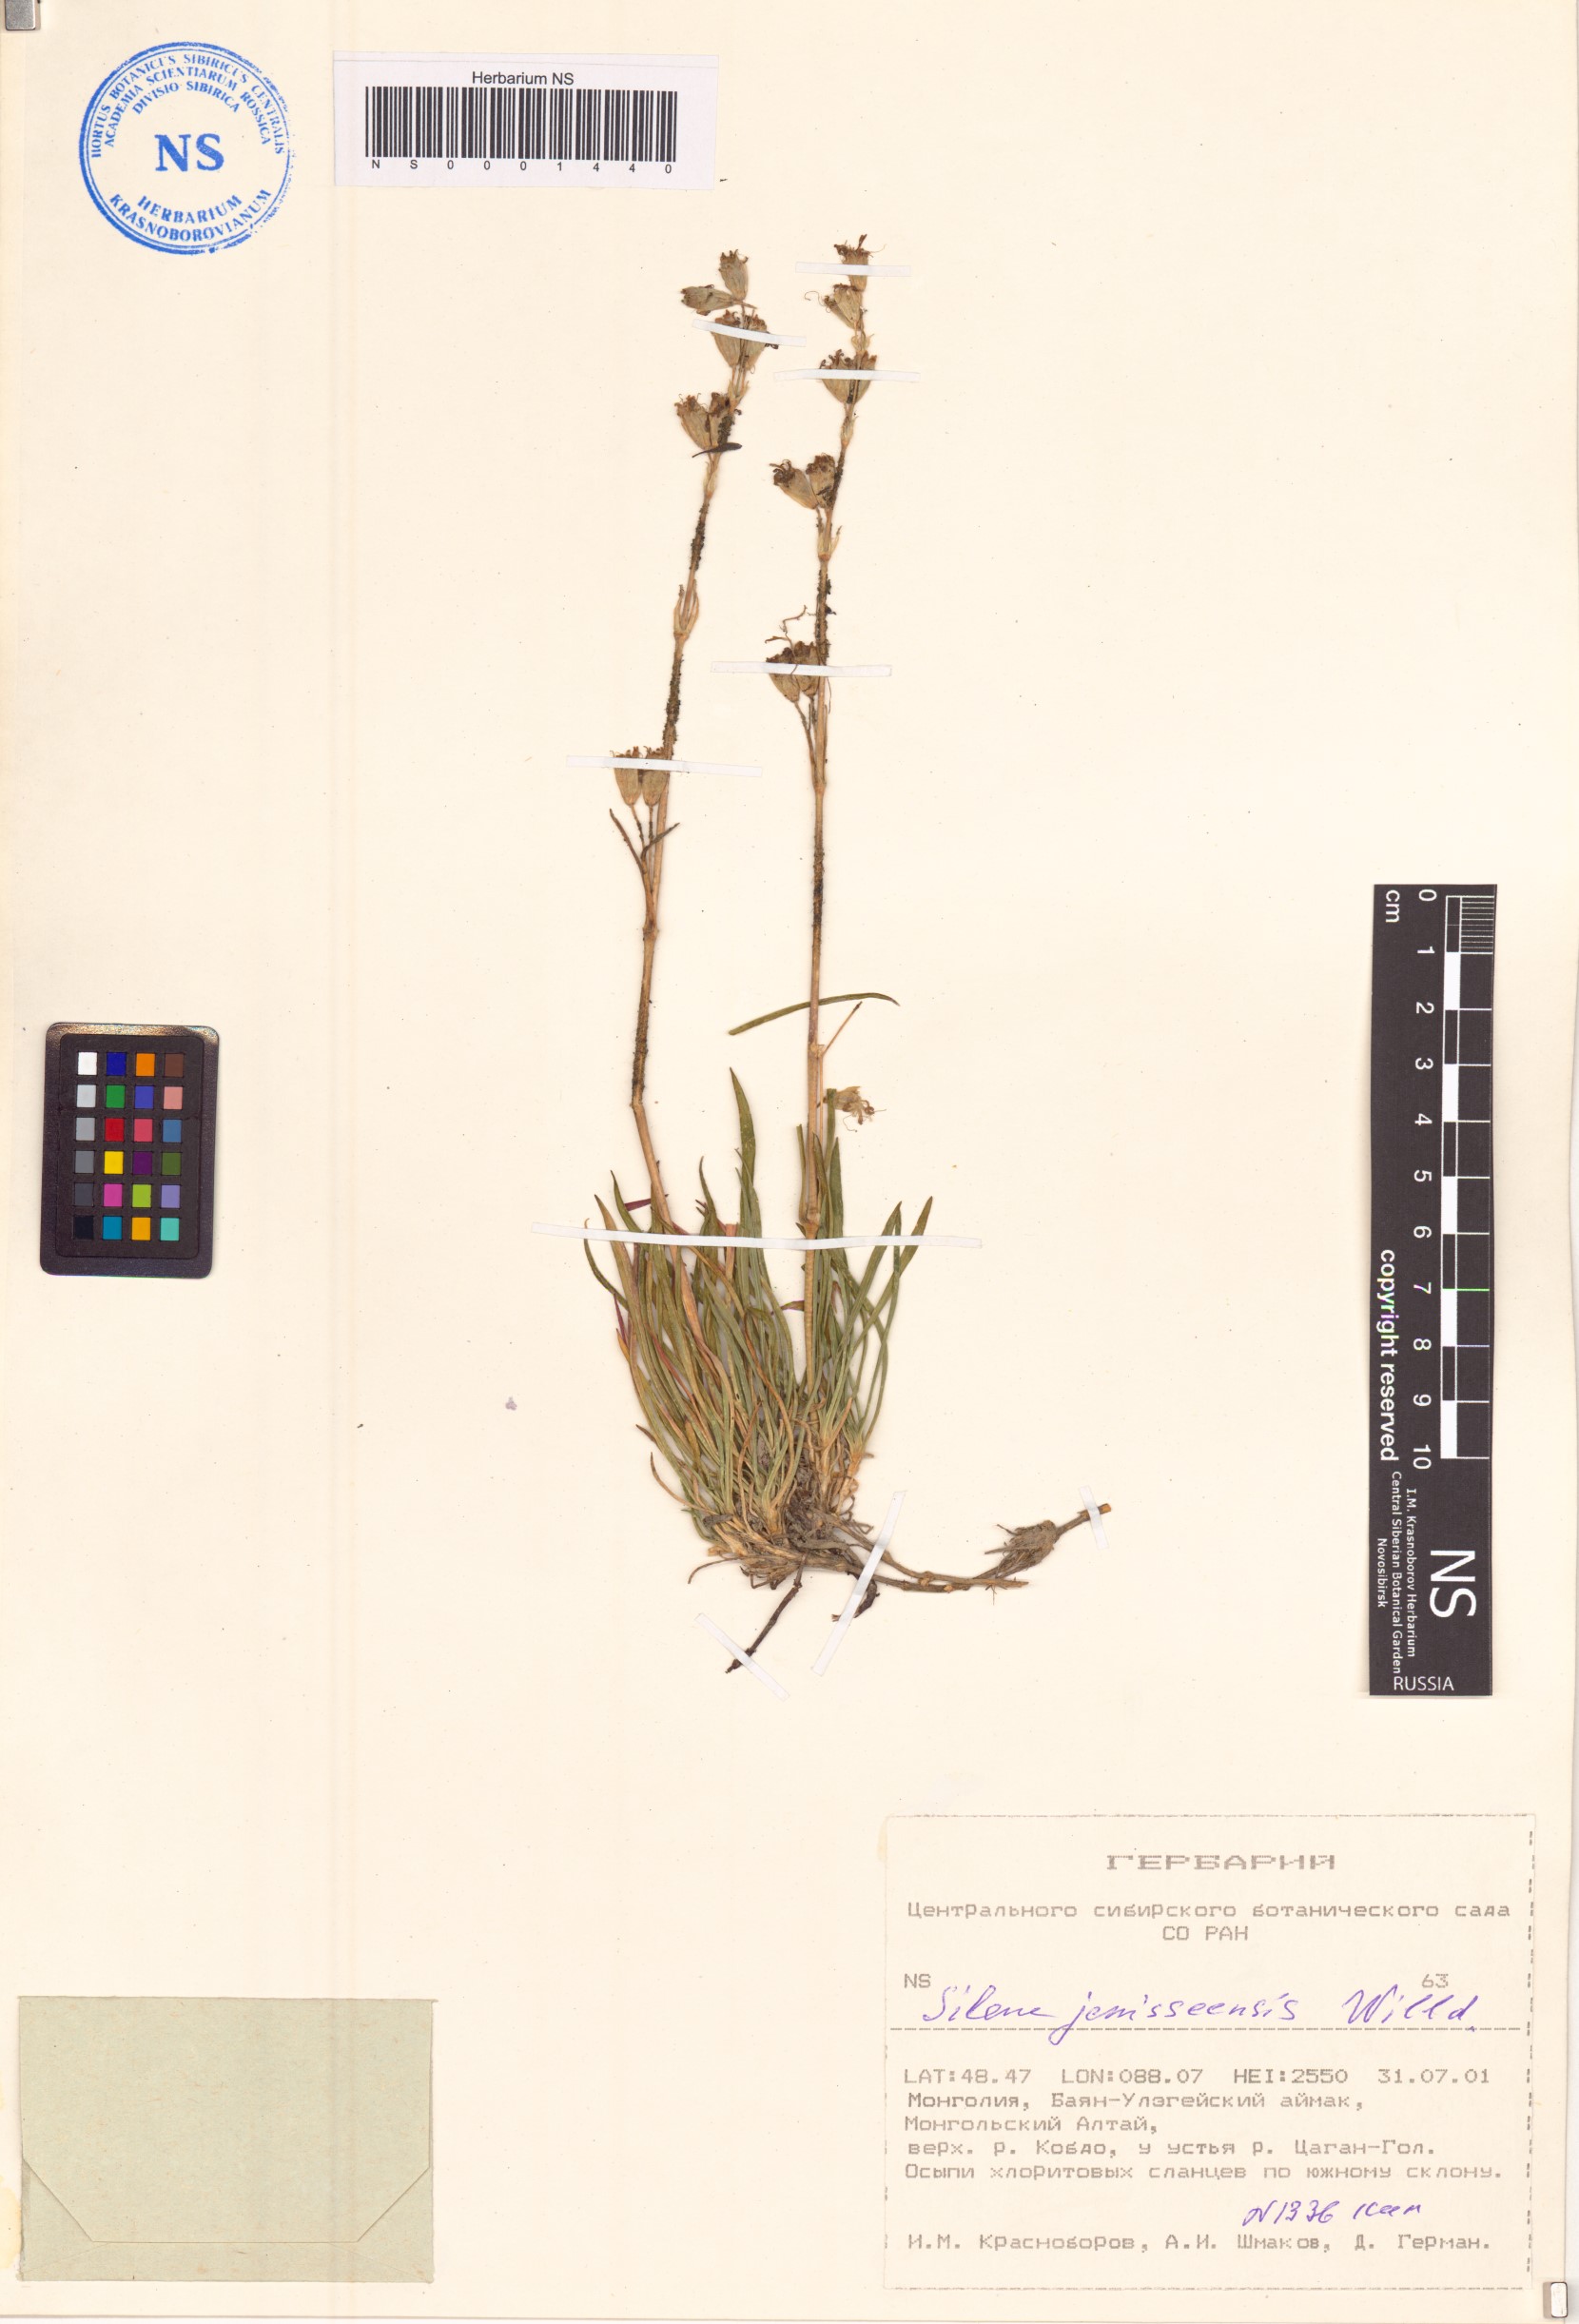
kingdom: Plantae
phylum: Tracheophyta
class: Magnoliopsida
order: Caryophyllales
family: Caryophyllaceae
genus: Silene
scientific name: Silene jeniseensis
